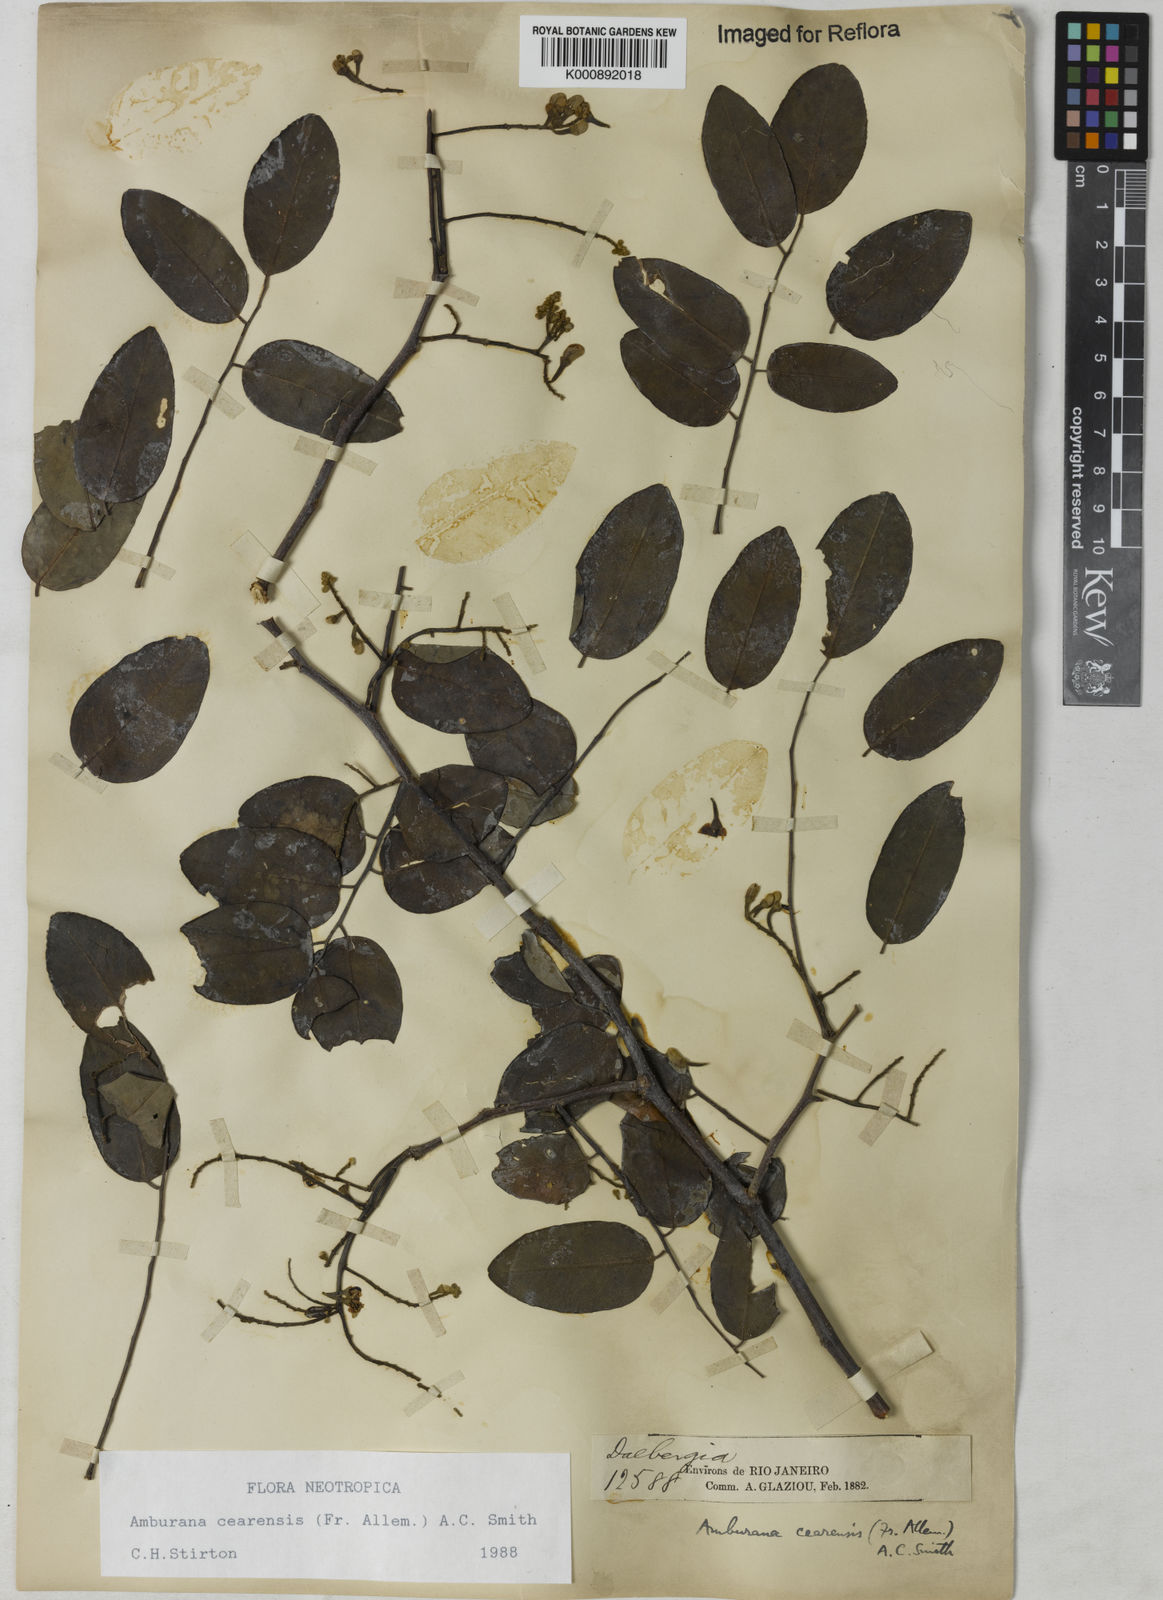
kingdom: Plantae
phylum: Tracheophyta
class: Magnoliopsida
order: Fabales
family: Fabaceae
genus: Amburana
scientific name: Amburana
